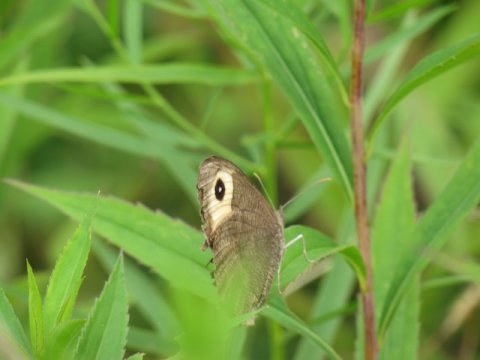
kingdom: Animalia
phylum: Arthropoda
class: Insecta
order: Lepidoptera
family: Nymphalidae
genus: Cercyonis
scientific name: Cercyonis pegala
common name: Common Wood-Nymph
